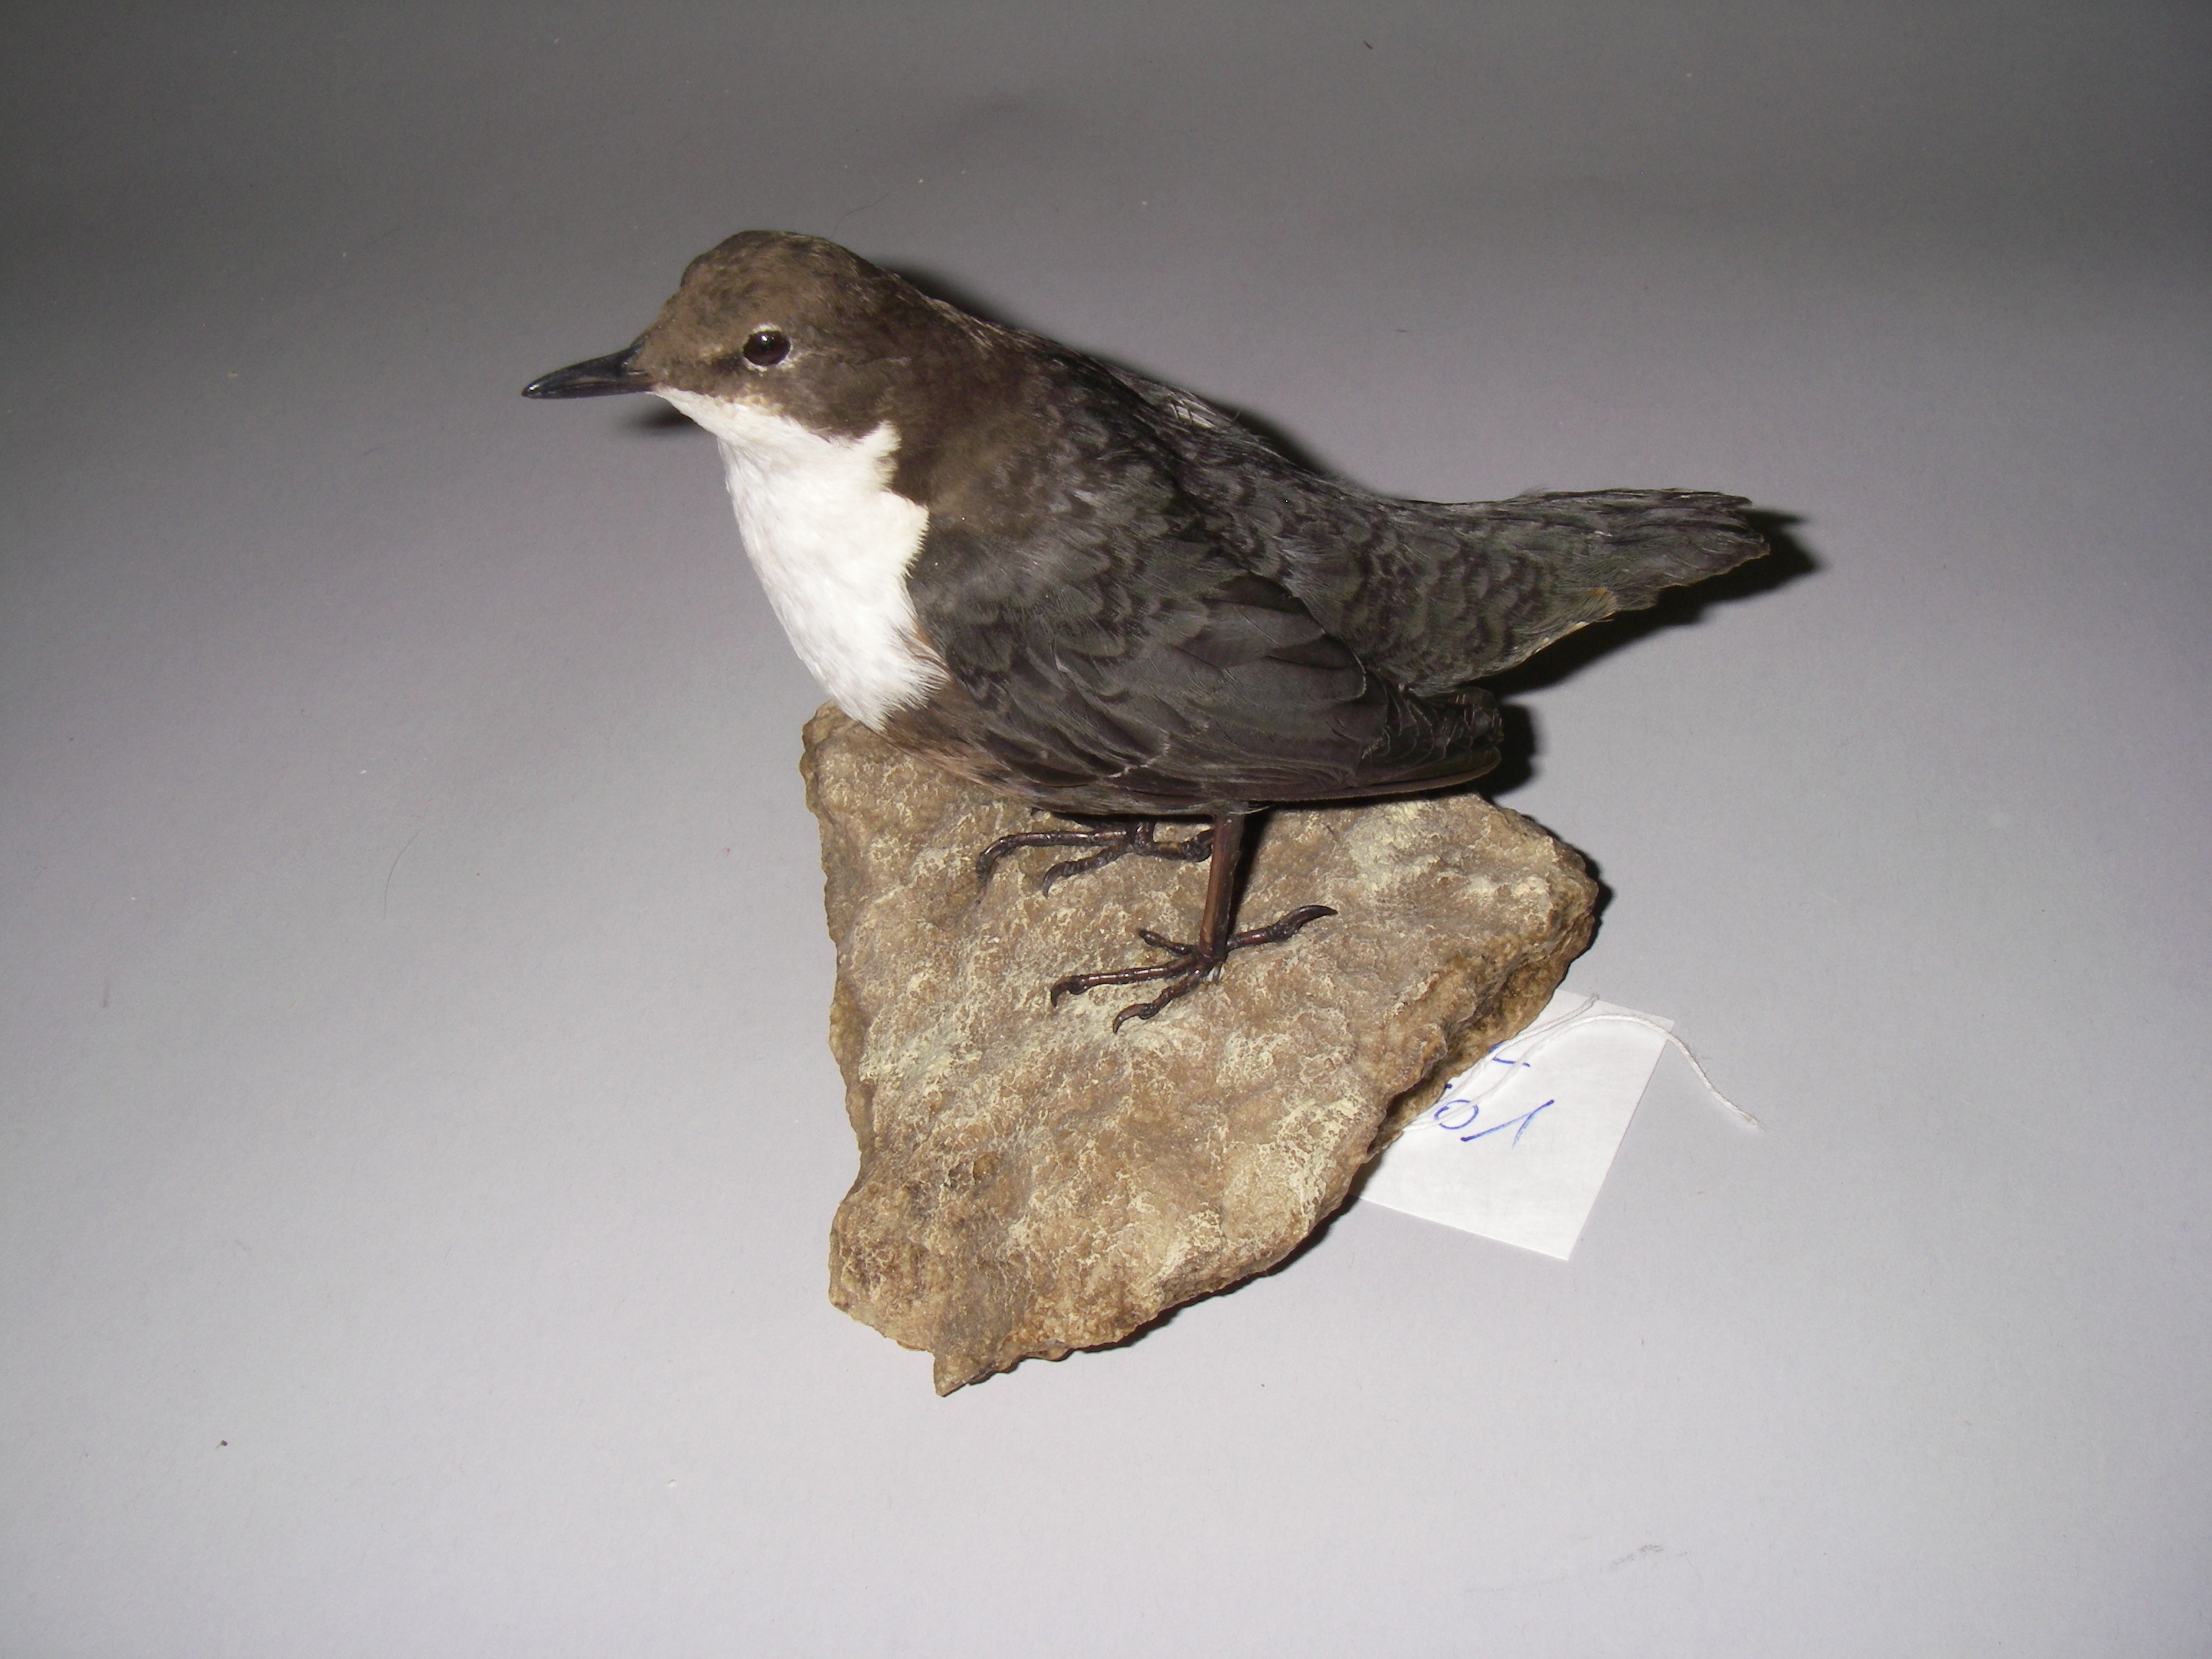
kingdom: Animalia
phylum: Chordata
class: Aves
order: Passeriformes
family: Cinclidae
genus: Cinclus
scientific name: Cinclus cinclus
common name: White-throated dipper
